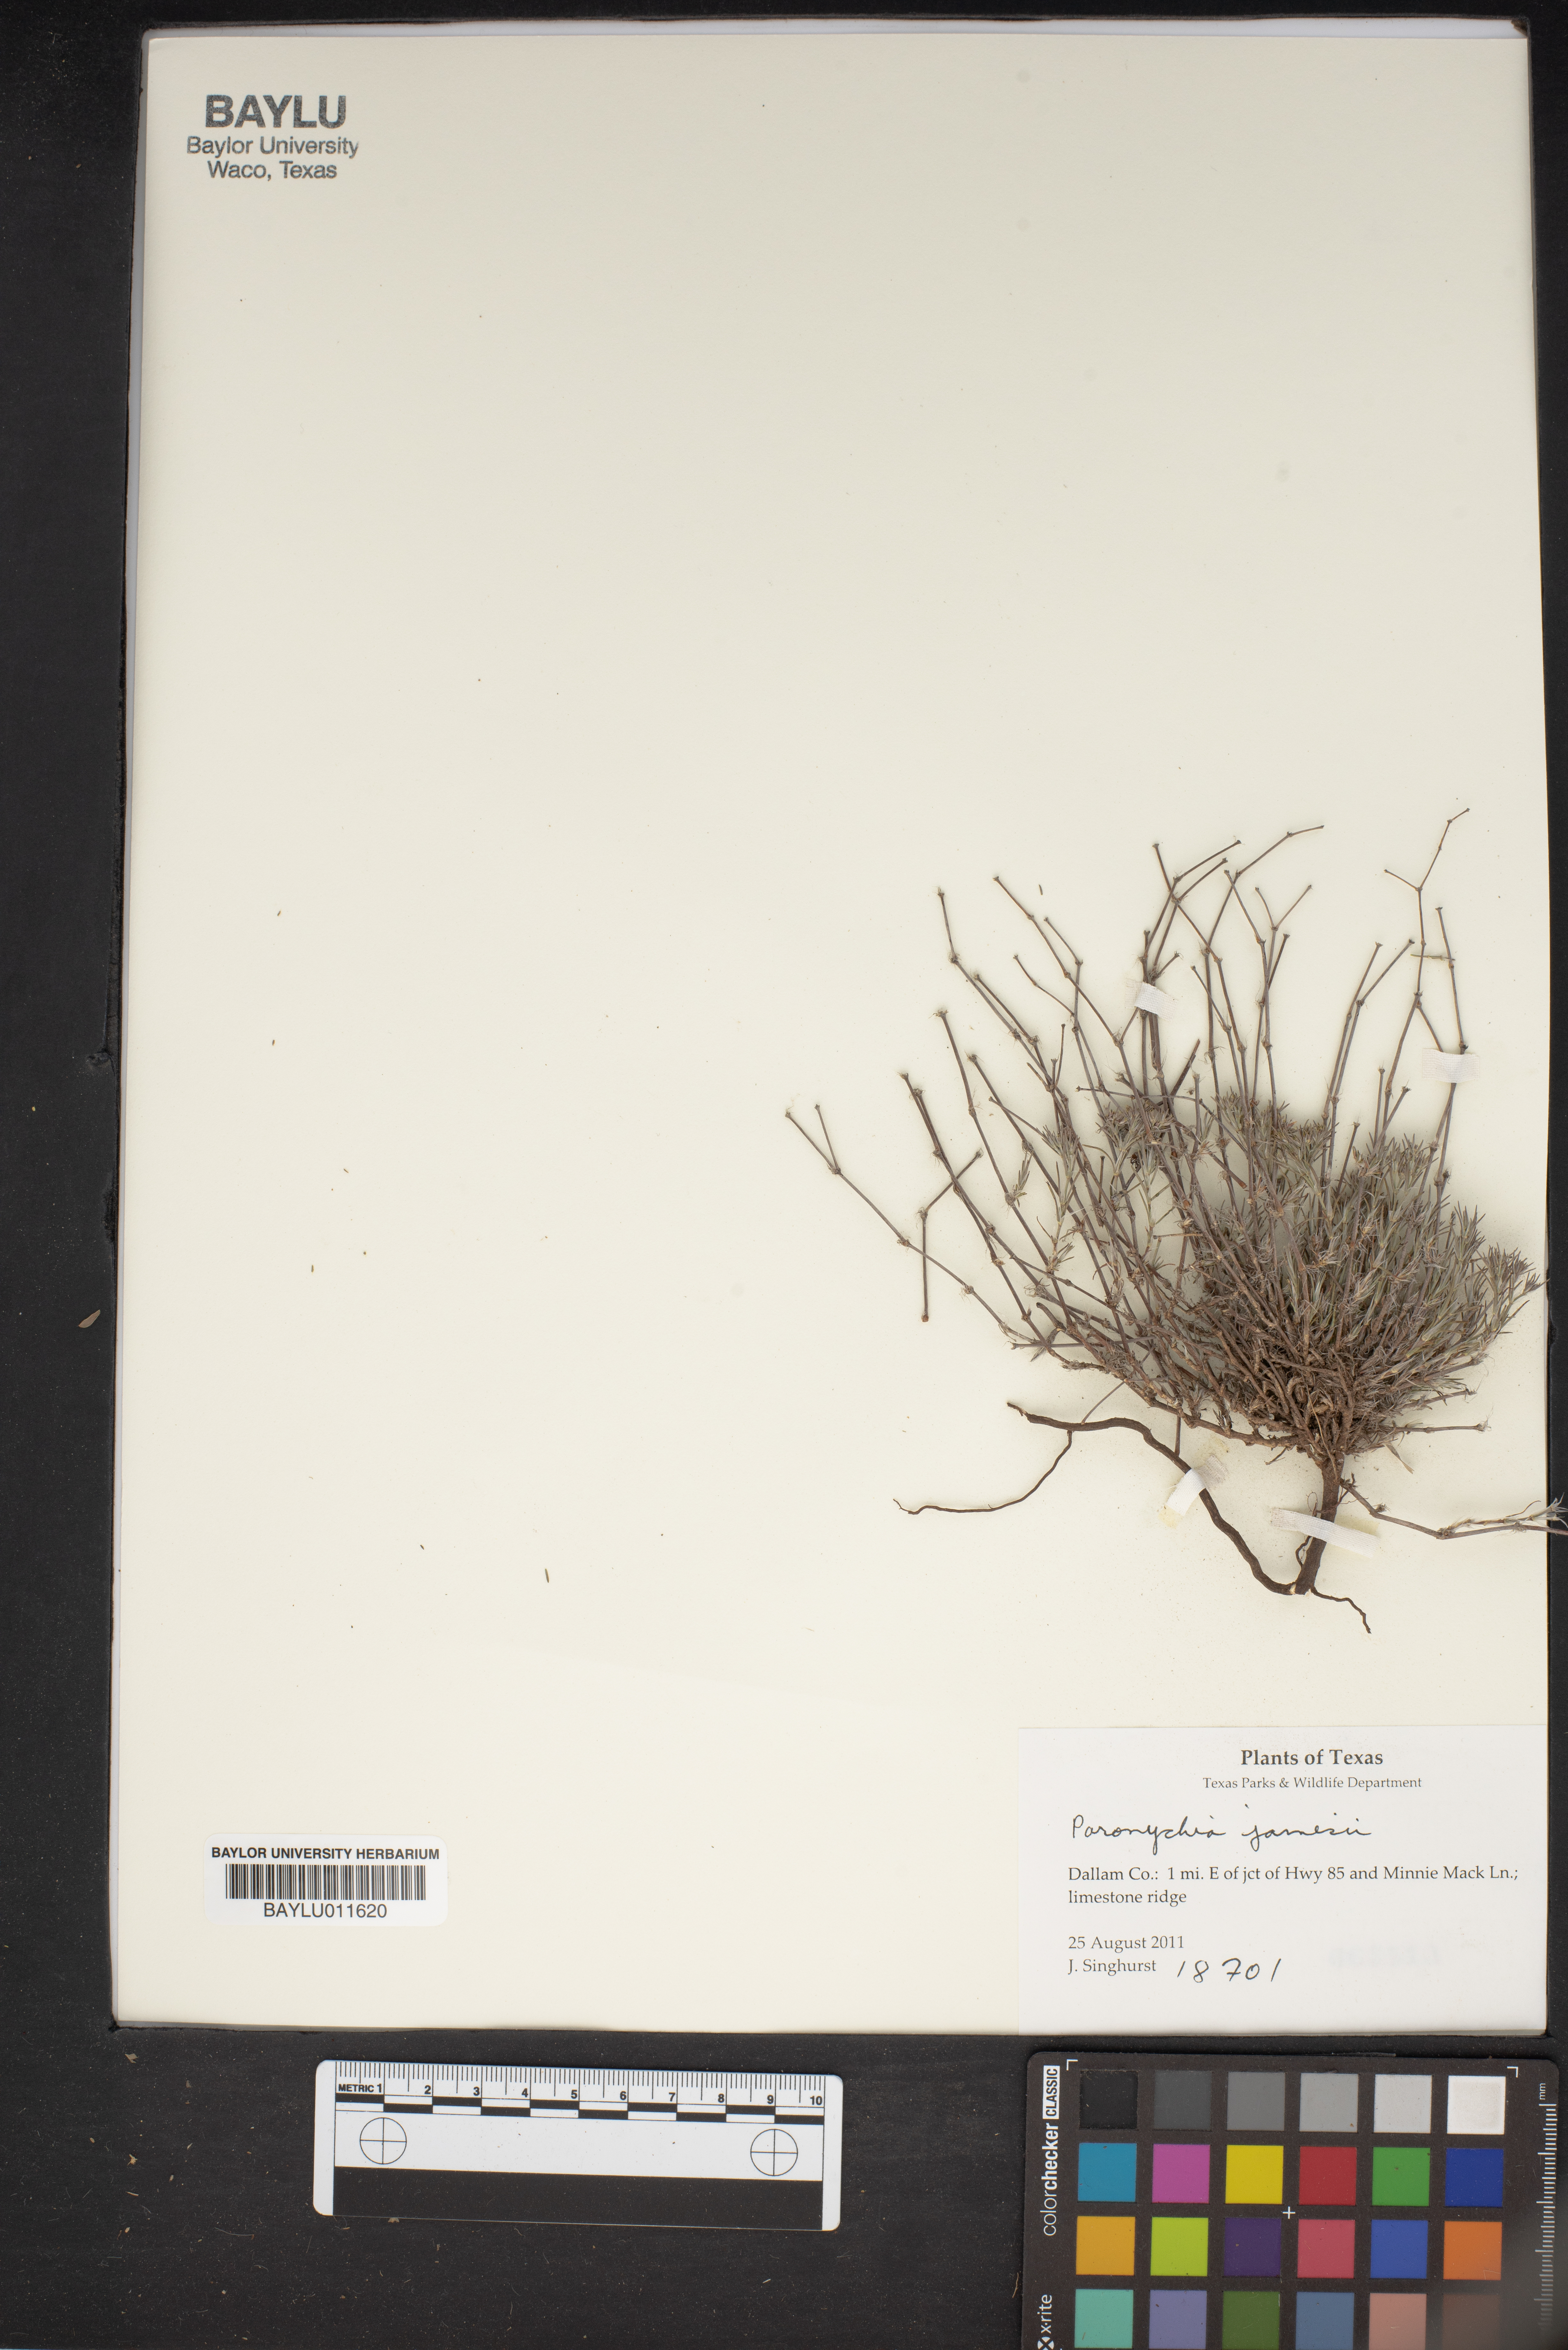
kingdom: Plantae
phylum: Tracheophyta
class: Magnoliopsida
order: Caryophyllales
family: Caryophyllaceae
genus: Paronychia
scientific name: Paronychia jamesii
